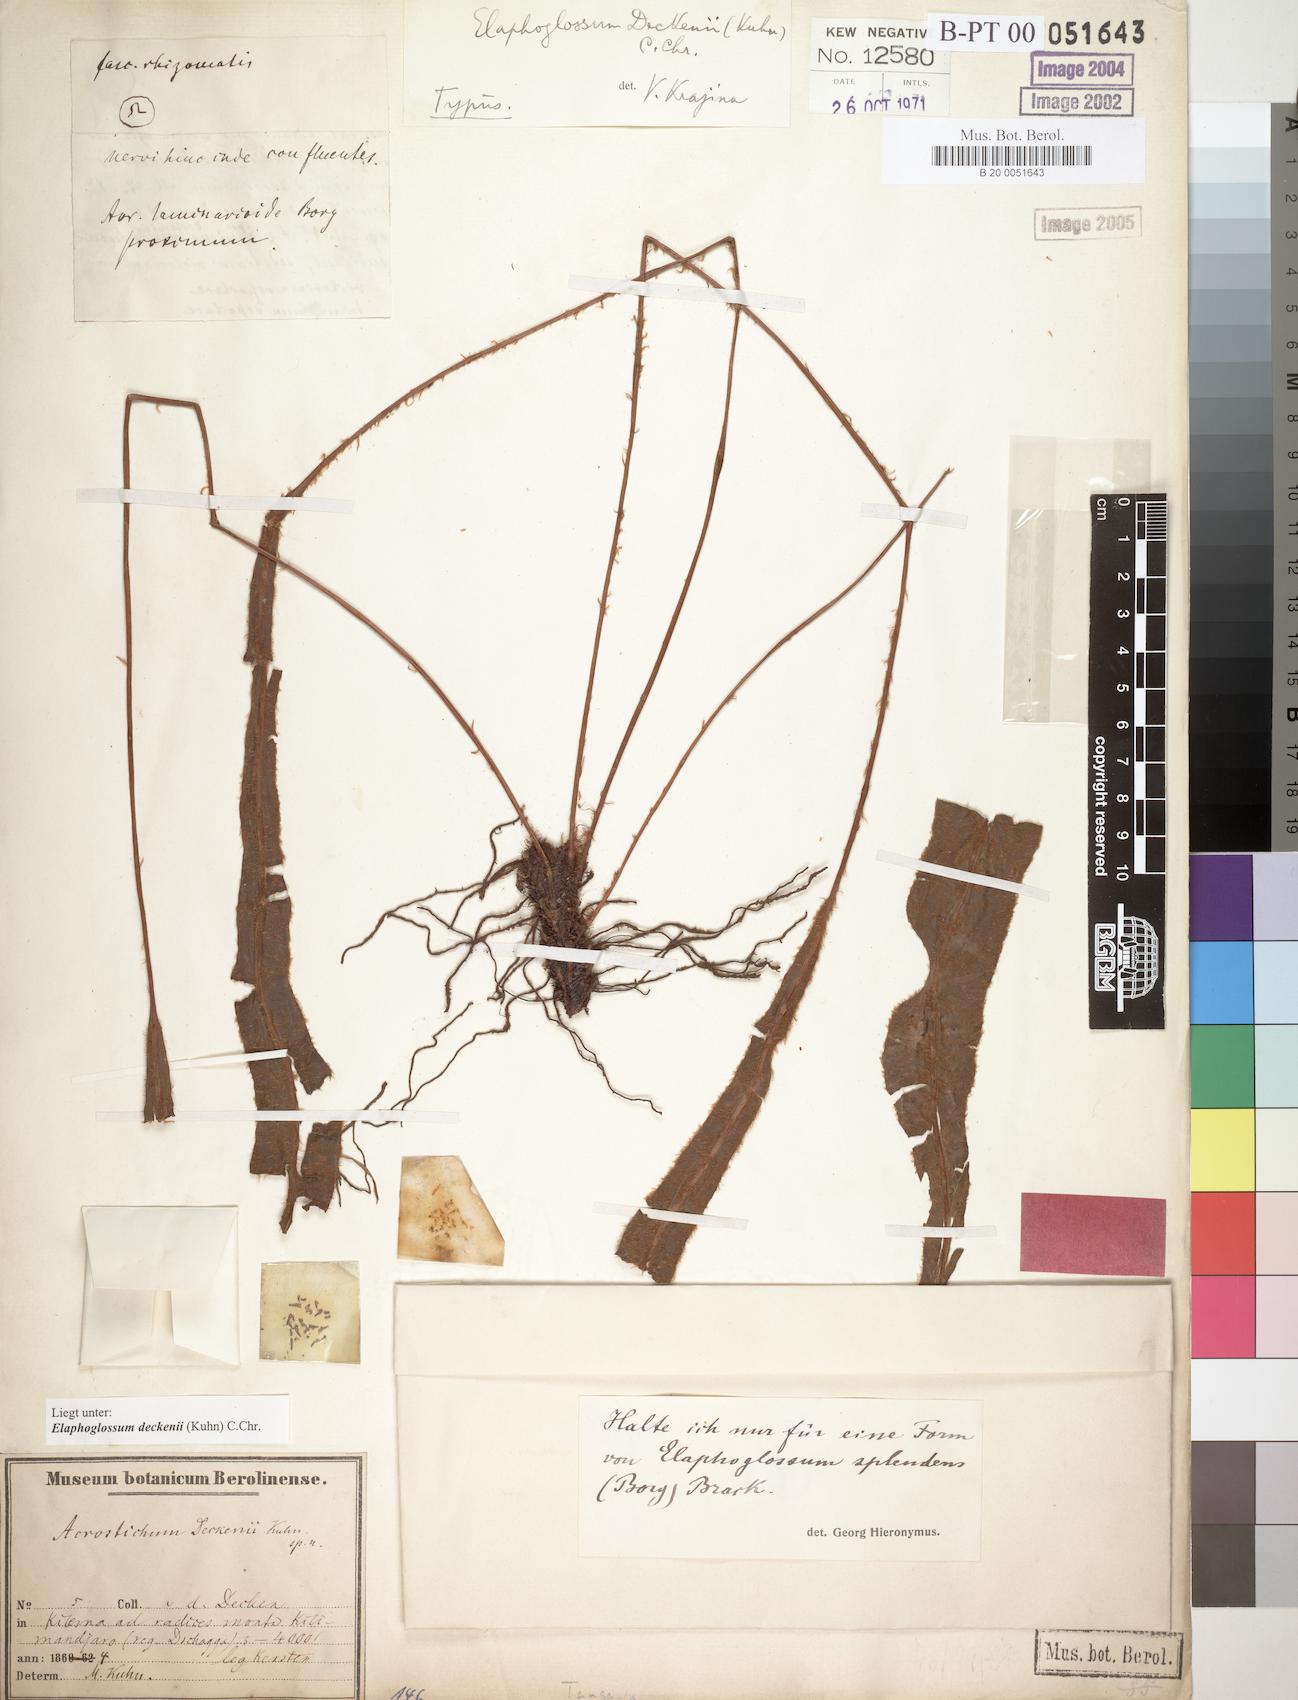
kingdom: Plantae
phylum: Tracheophyta
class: Polypodiopsida
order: Polypodiales
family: Dryopteridaceae
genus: Elaphoglossum
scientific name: Elaphoglossum deckenii
